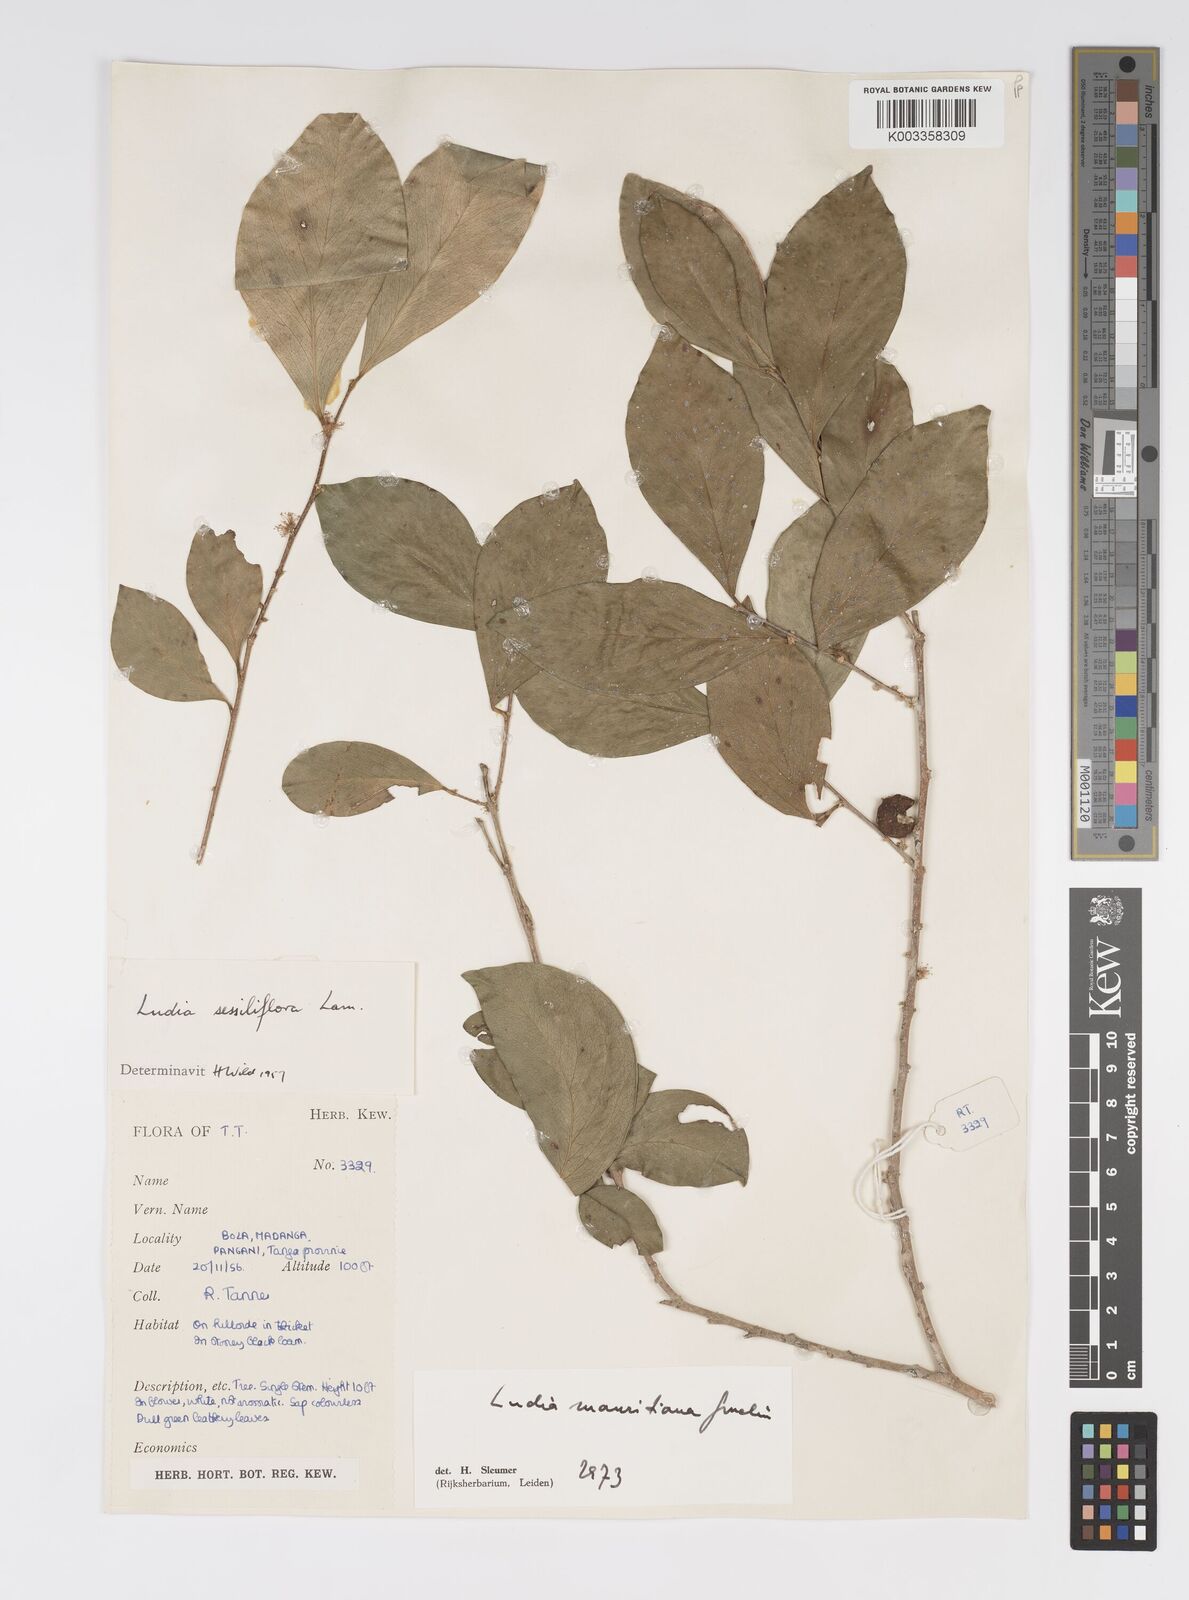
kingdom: Plantae
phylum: Tracheophyta
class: Magnoliopsida
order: Malpighiales
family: Salicaceae
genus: Ludia
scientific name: Ludia mauritiana
